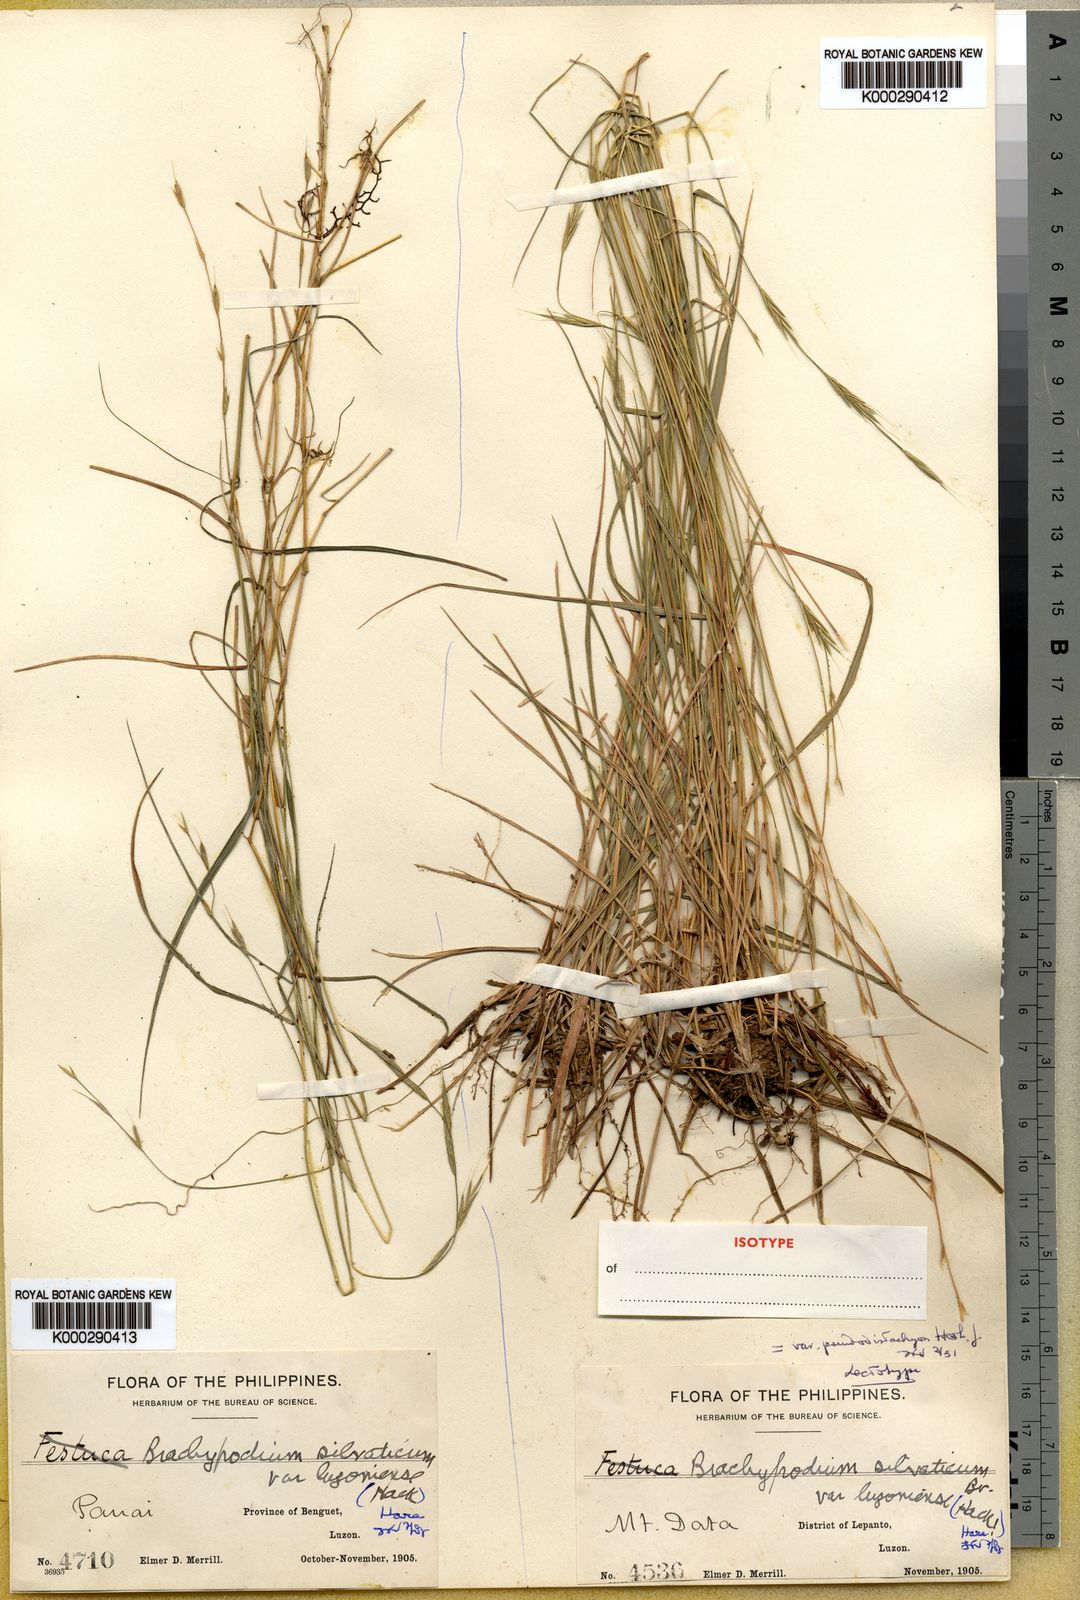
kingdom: Plantae
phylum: Tracheophyta
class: Liliopsida
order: Poales
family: Poaceae
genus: Brachypodium
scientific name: Brachypodium sylvaticum
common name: False-brome
